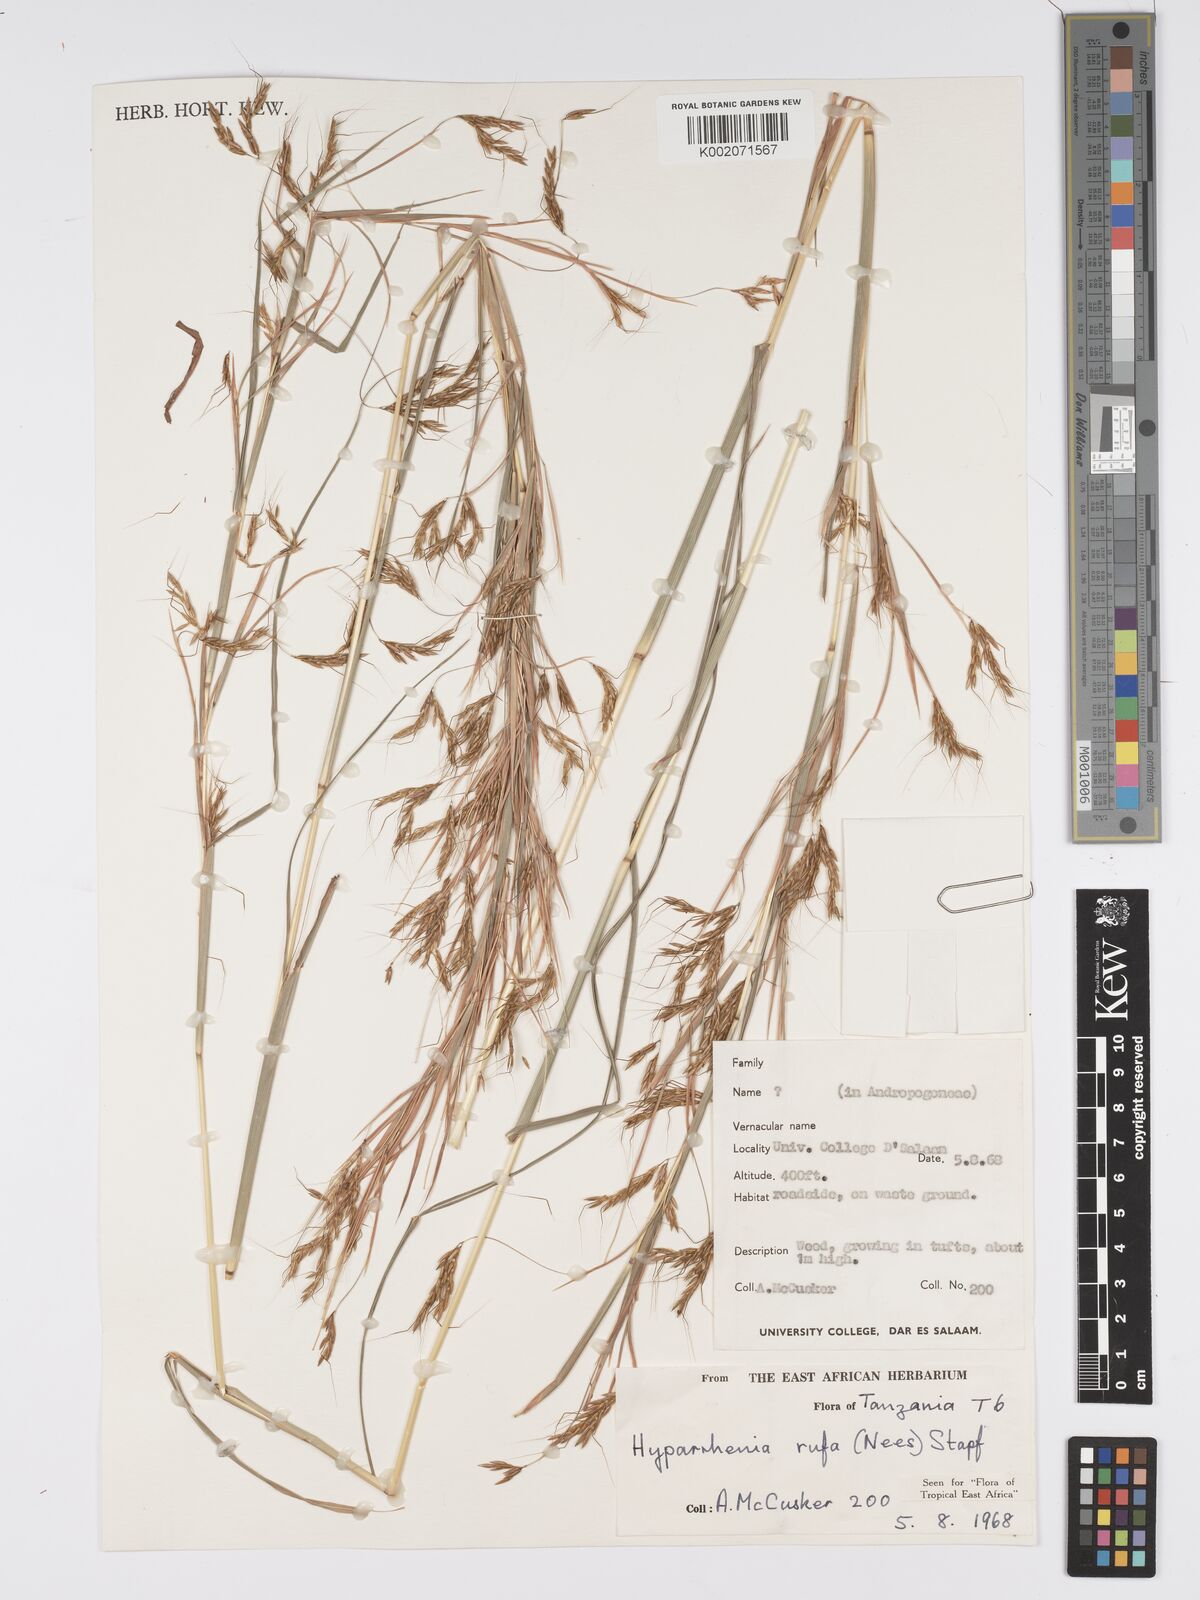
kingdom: Plantae
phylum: Tracheophyta
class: Liliopsida
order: Poales
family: Poaceae
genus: Hyparrhenia
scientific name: Hyparrhenia rufa
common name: Jaraguagrass
